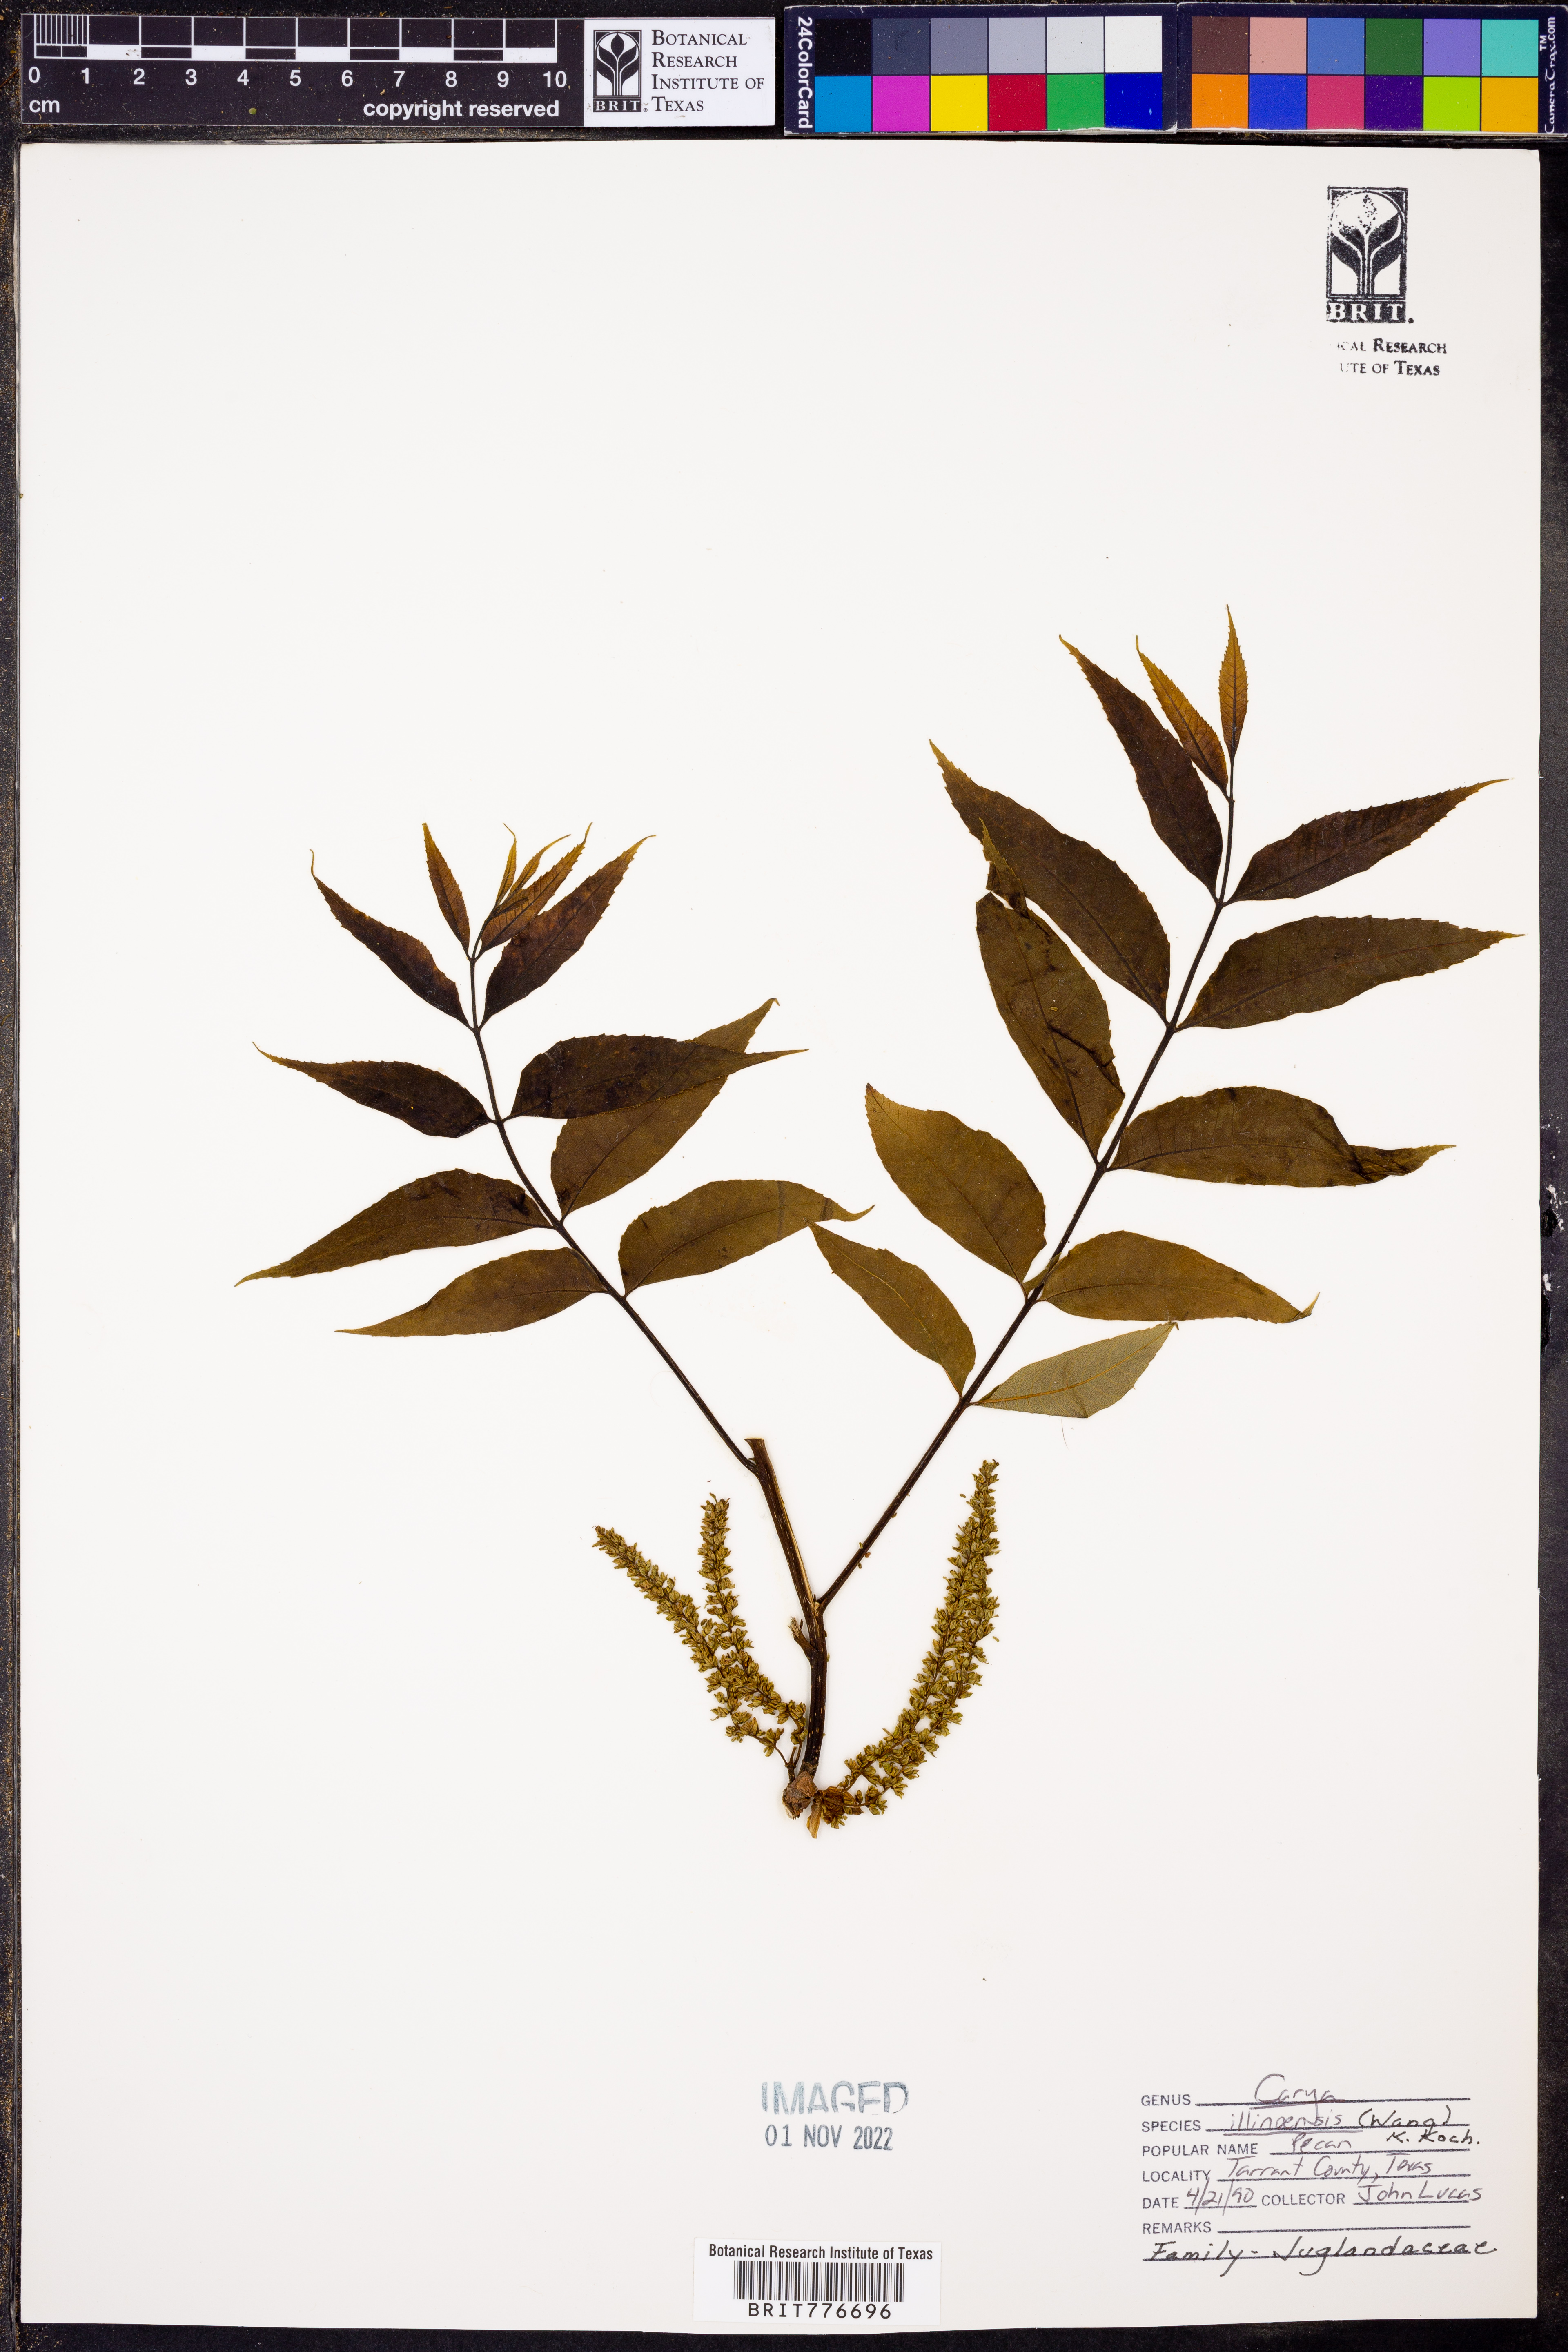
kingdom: Plantae
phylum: Tracheophyta
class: Magnoliopsida
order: Fagales
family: Juglandaceae
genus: Carya
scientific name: Carya
